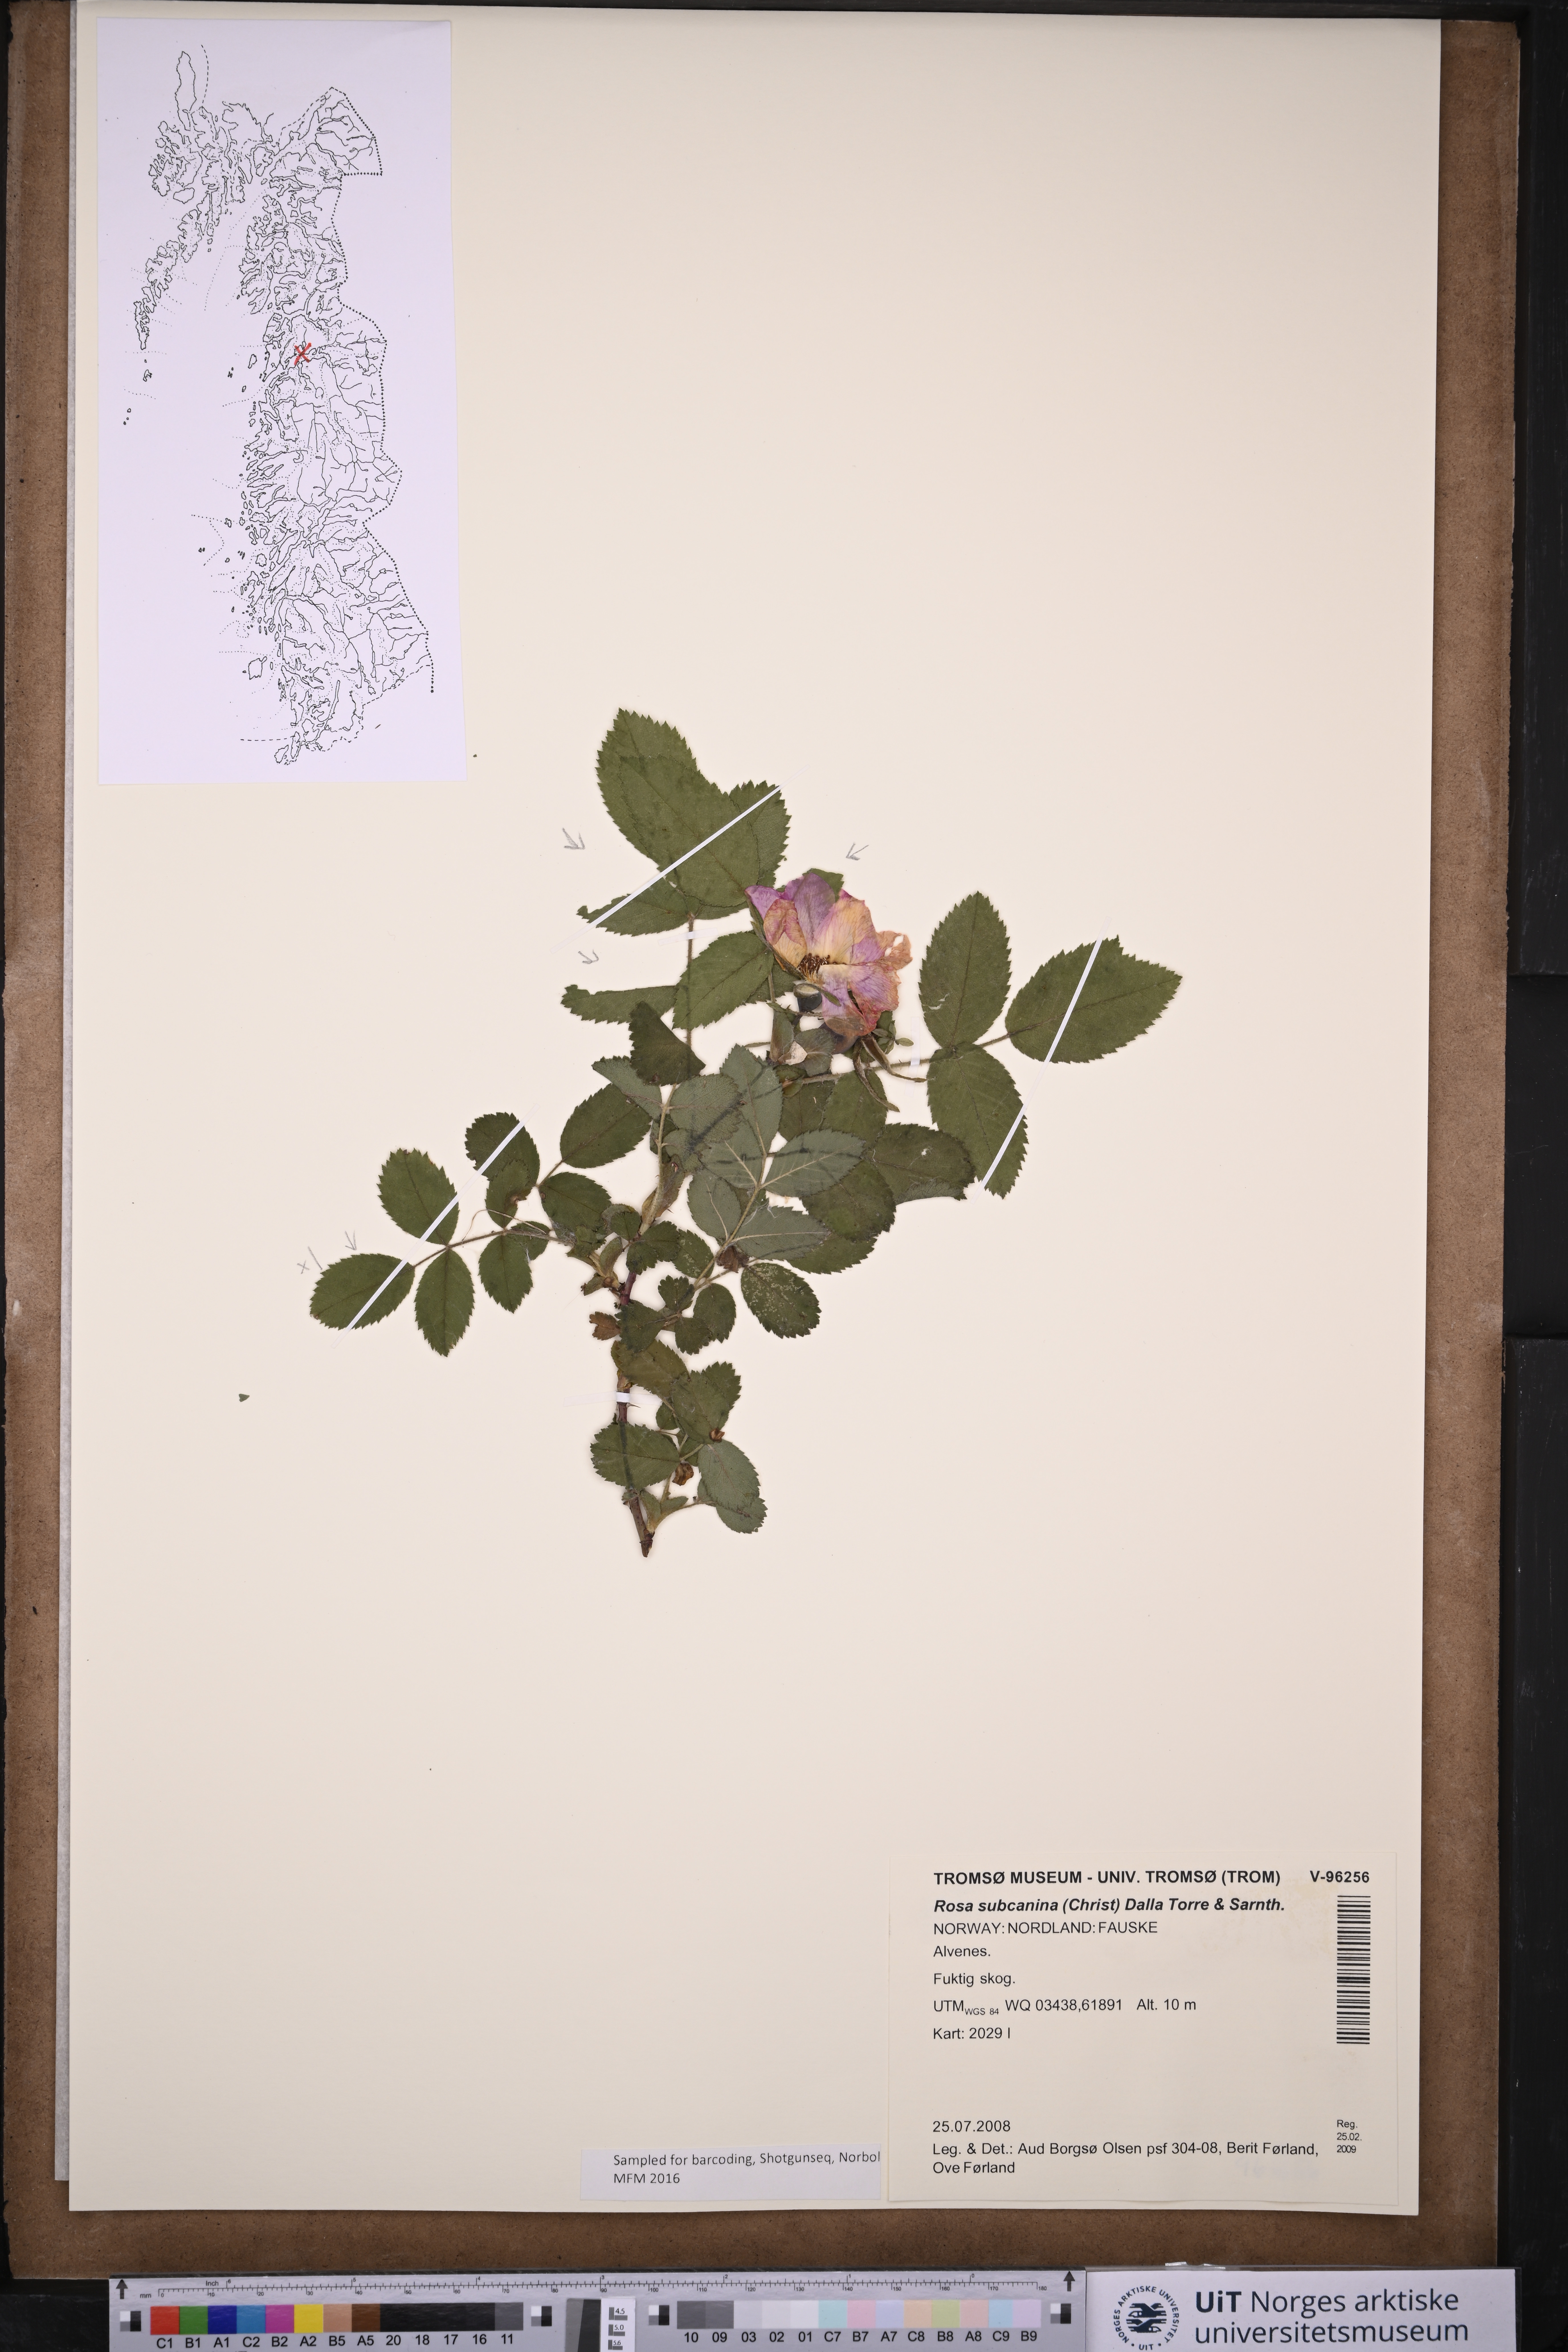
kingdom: Plantae
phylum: Tracheophyta
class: Magnoliopsida
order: Rosales
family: Rosaceae
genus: Rosa
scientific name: Rosa subcanina
